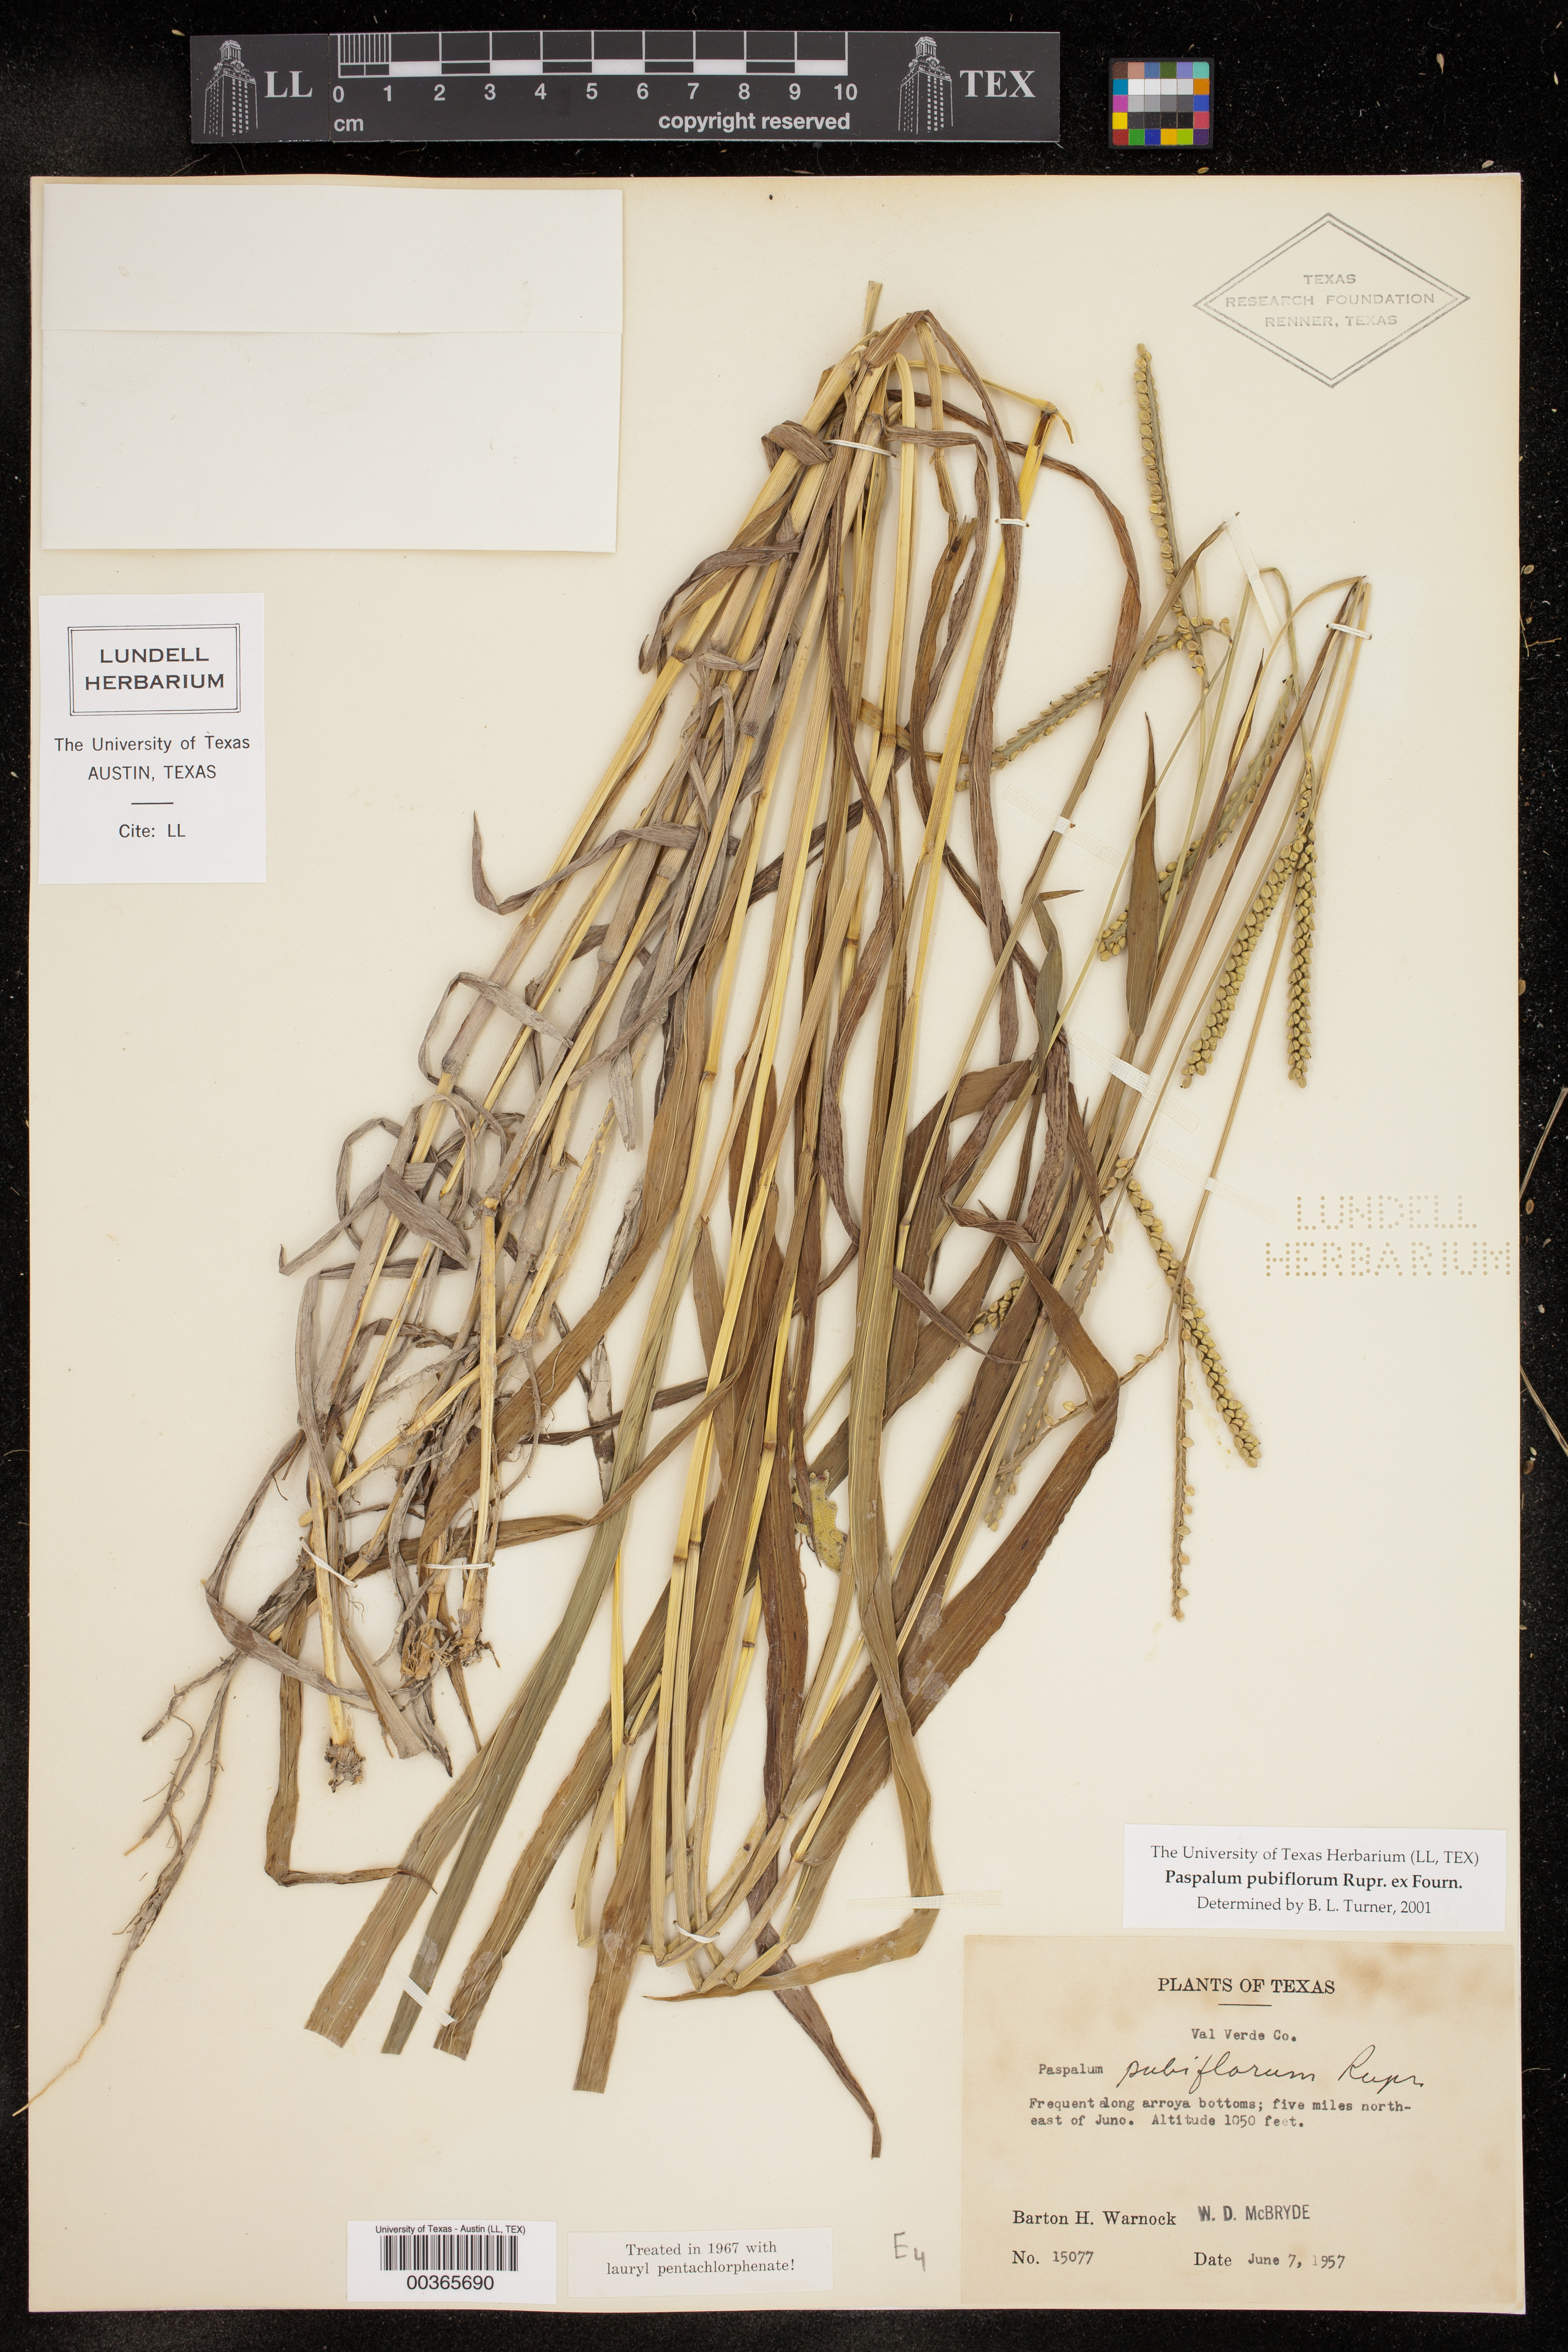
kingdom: Plantae
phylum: Tracheophyta
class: Liliopsida
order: Poales
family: Poaceae
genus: Paspalum
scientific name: Paspalum pubiflorum
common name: Hairy-seed paspalum
